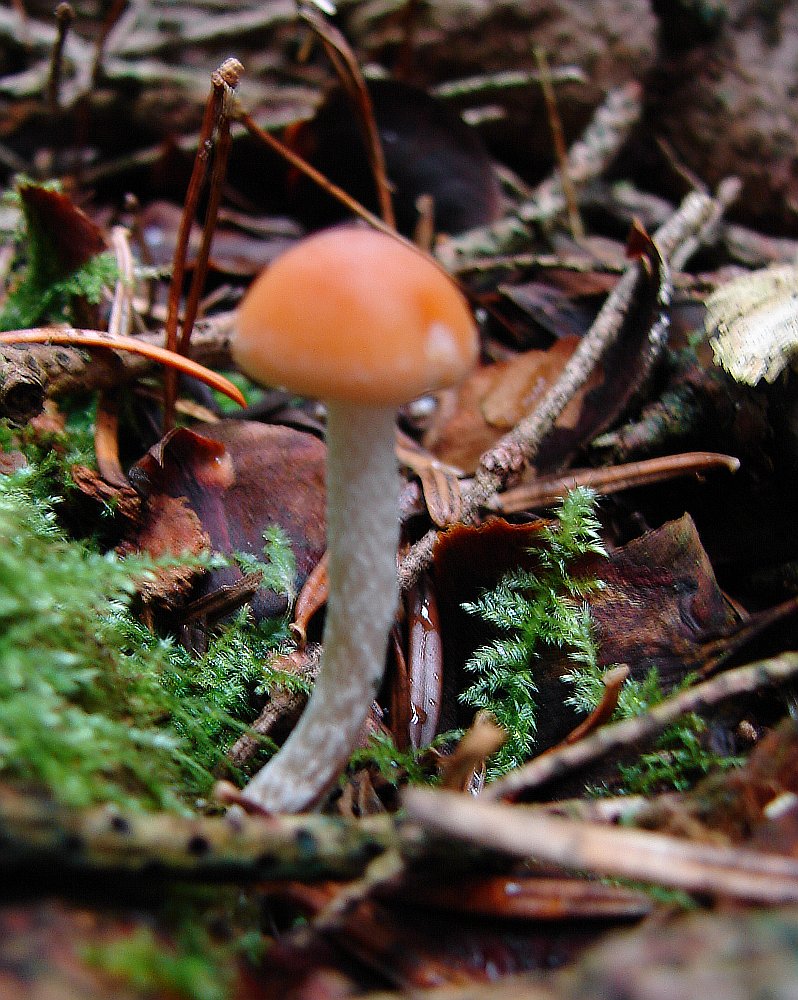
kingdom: Fungi
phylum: Basidiomycota
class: Agaricomycetes
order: Agaricales
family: Strophariaceae
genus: Hypholoma
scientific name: Hypholoma marginatum
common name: enlig svovlhat
